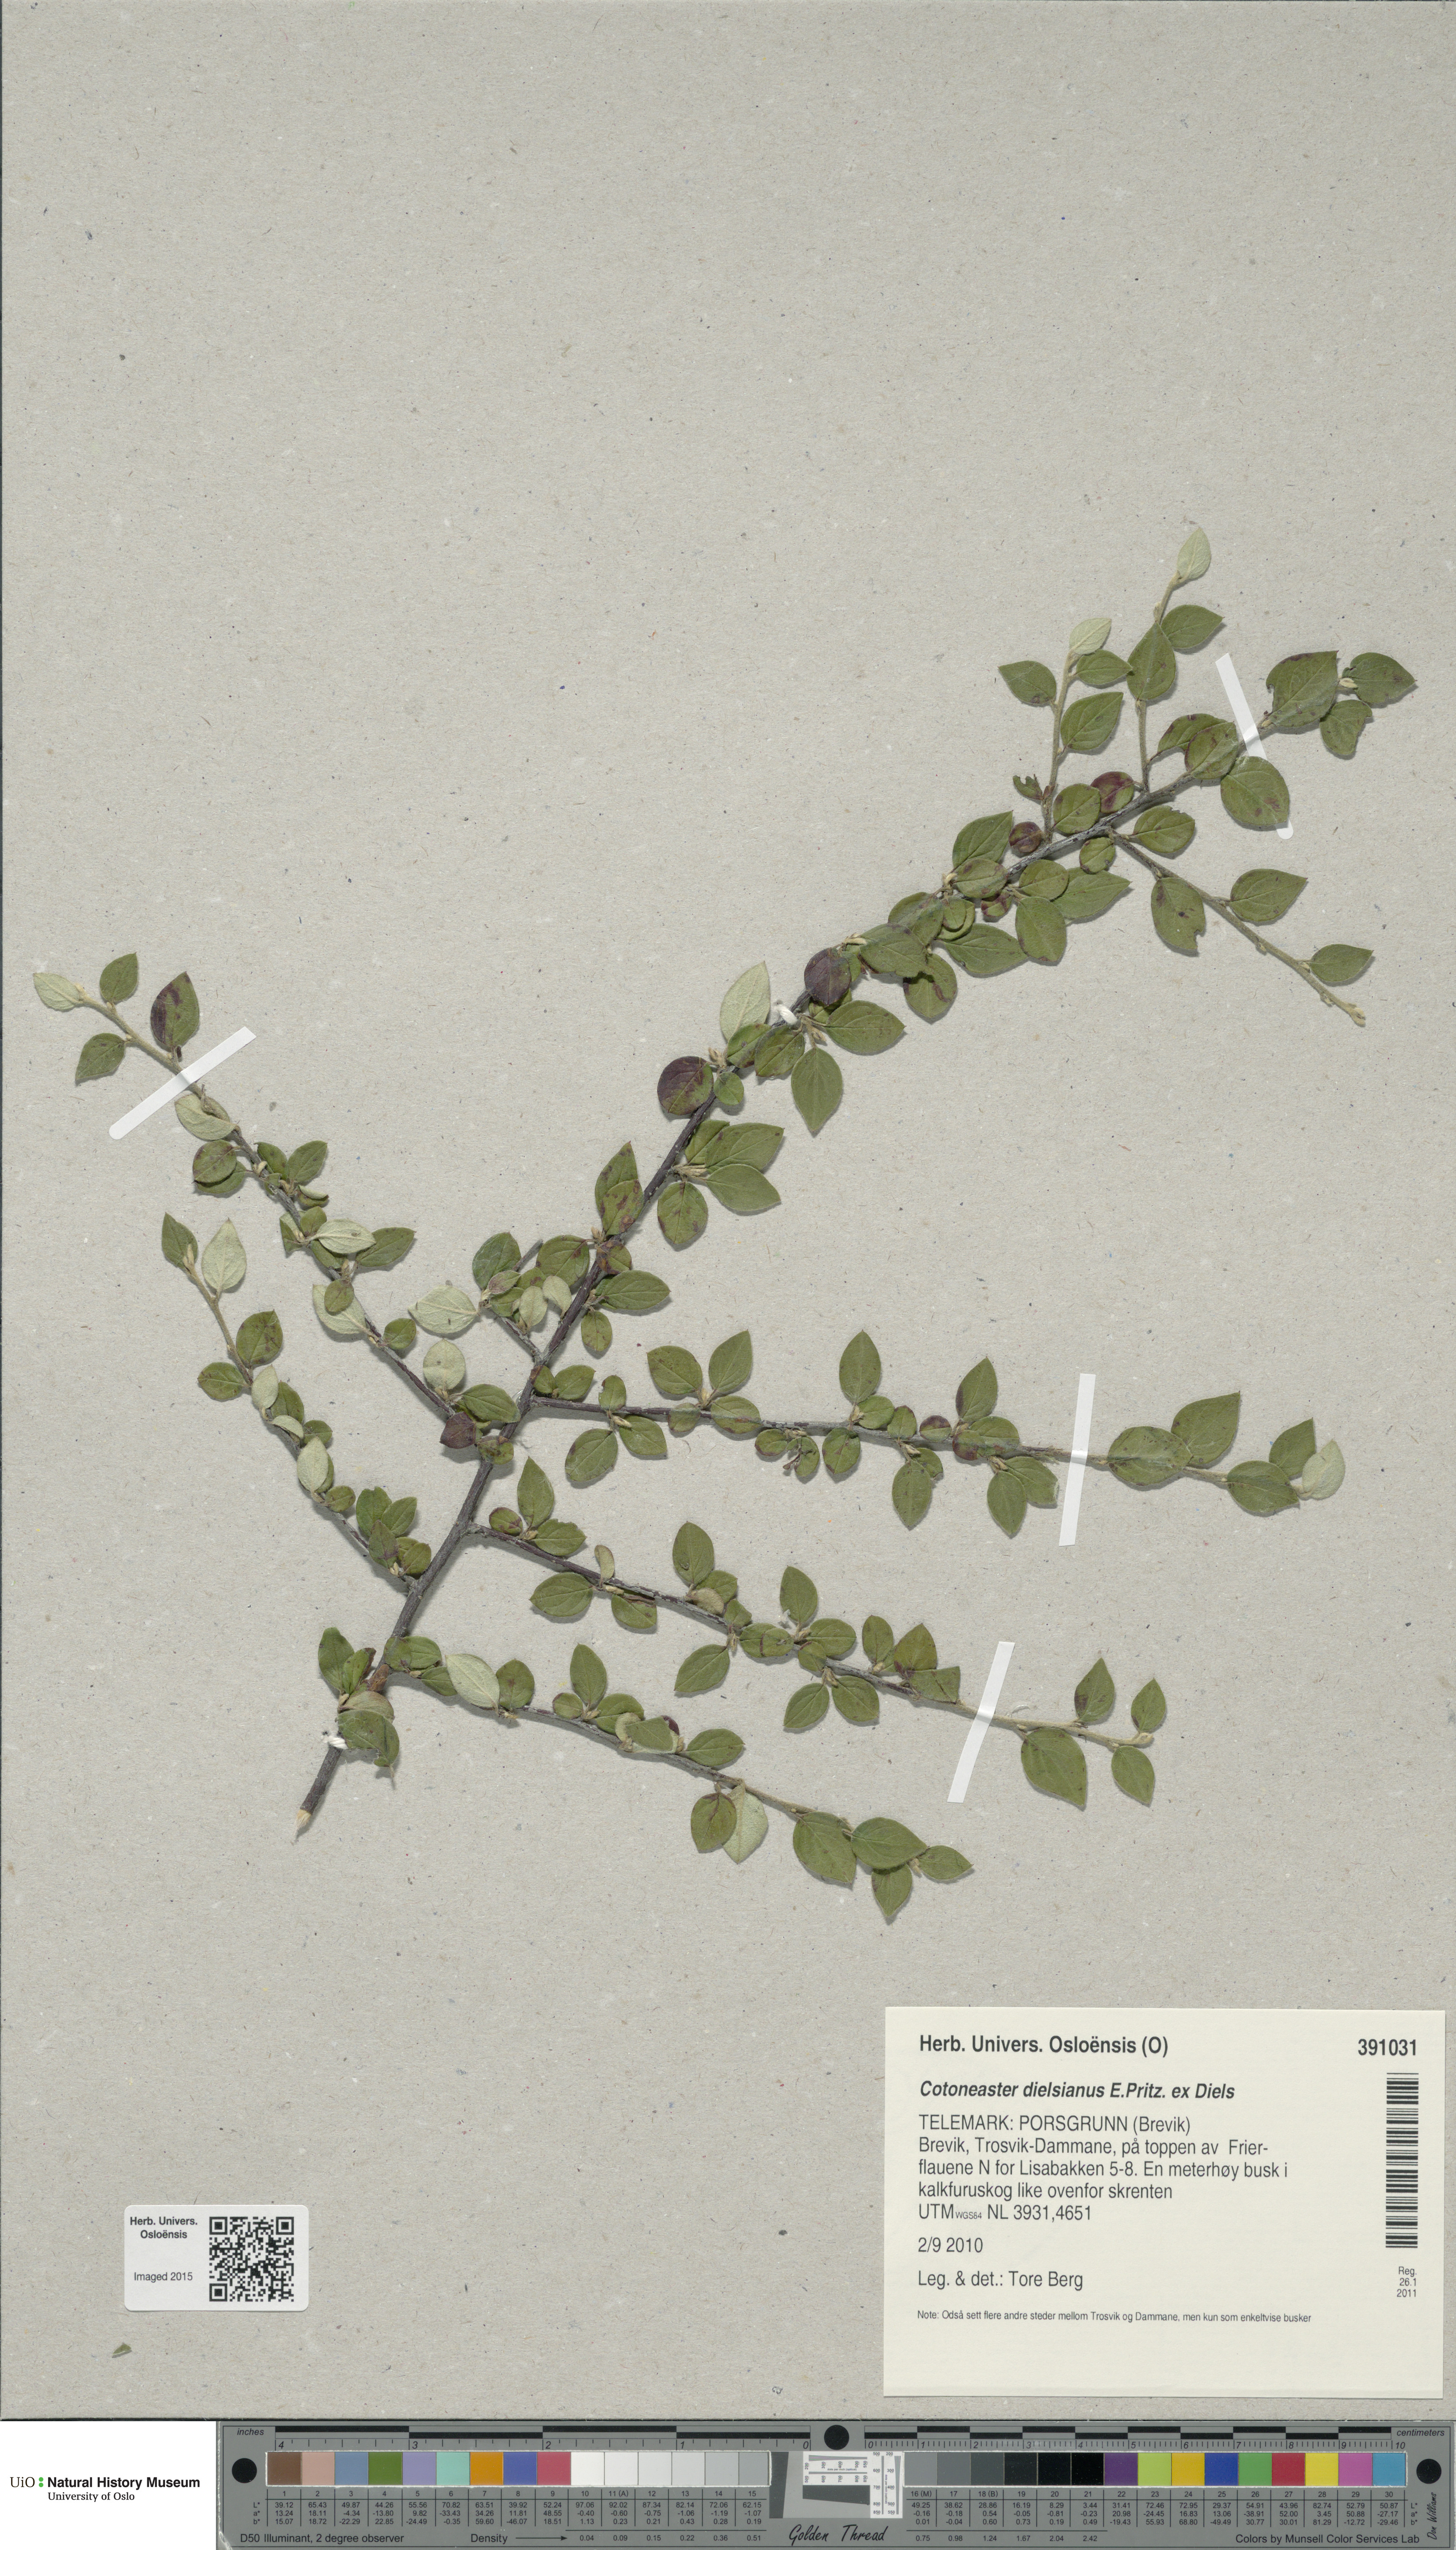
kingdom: Plantae
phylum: Tracheophyta
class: Magnoliopsida
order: Rosales
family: Rosaceae
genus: Cotoneaster
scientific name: Cotoneaster dielsianus
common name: Diels's cotoneaster
